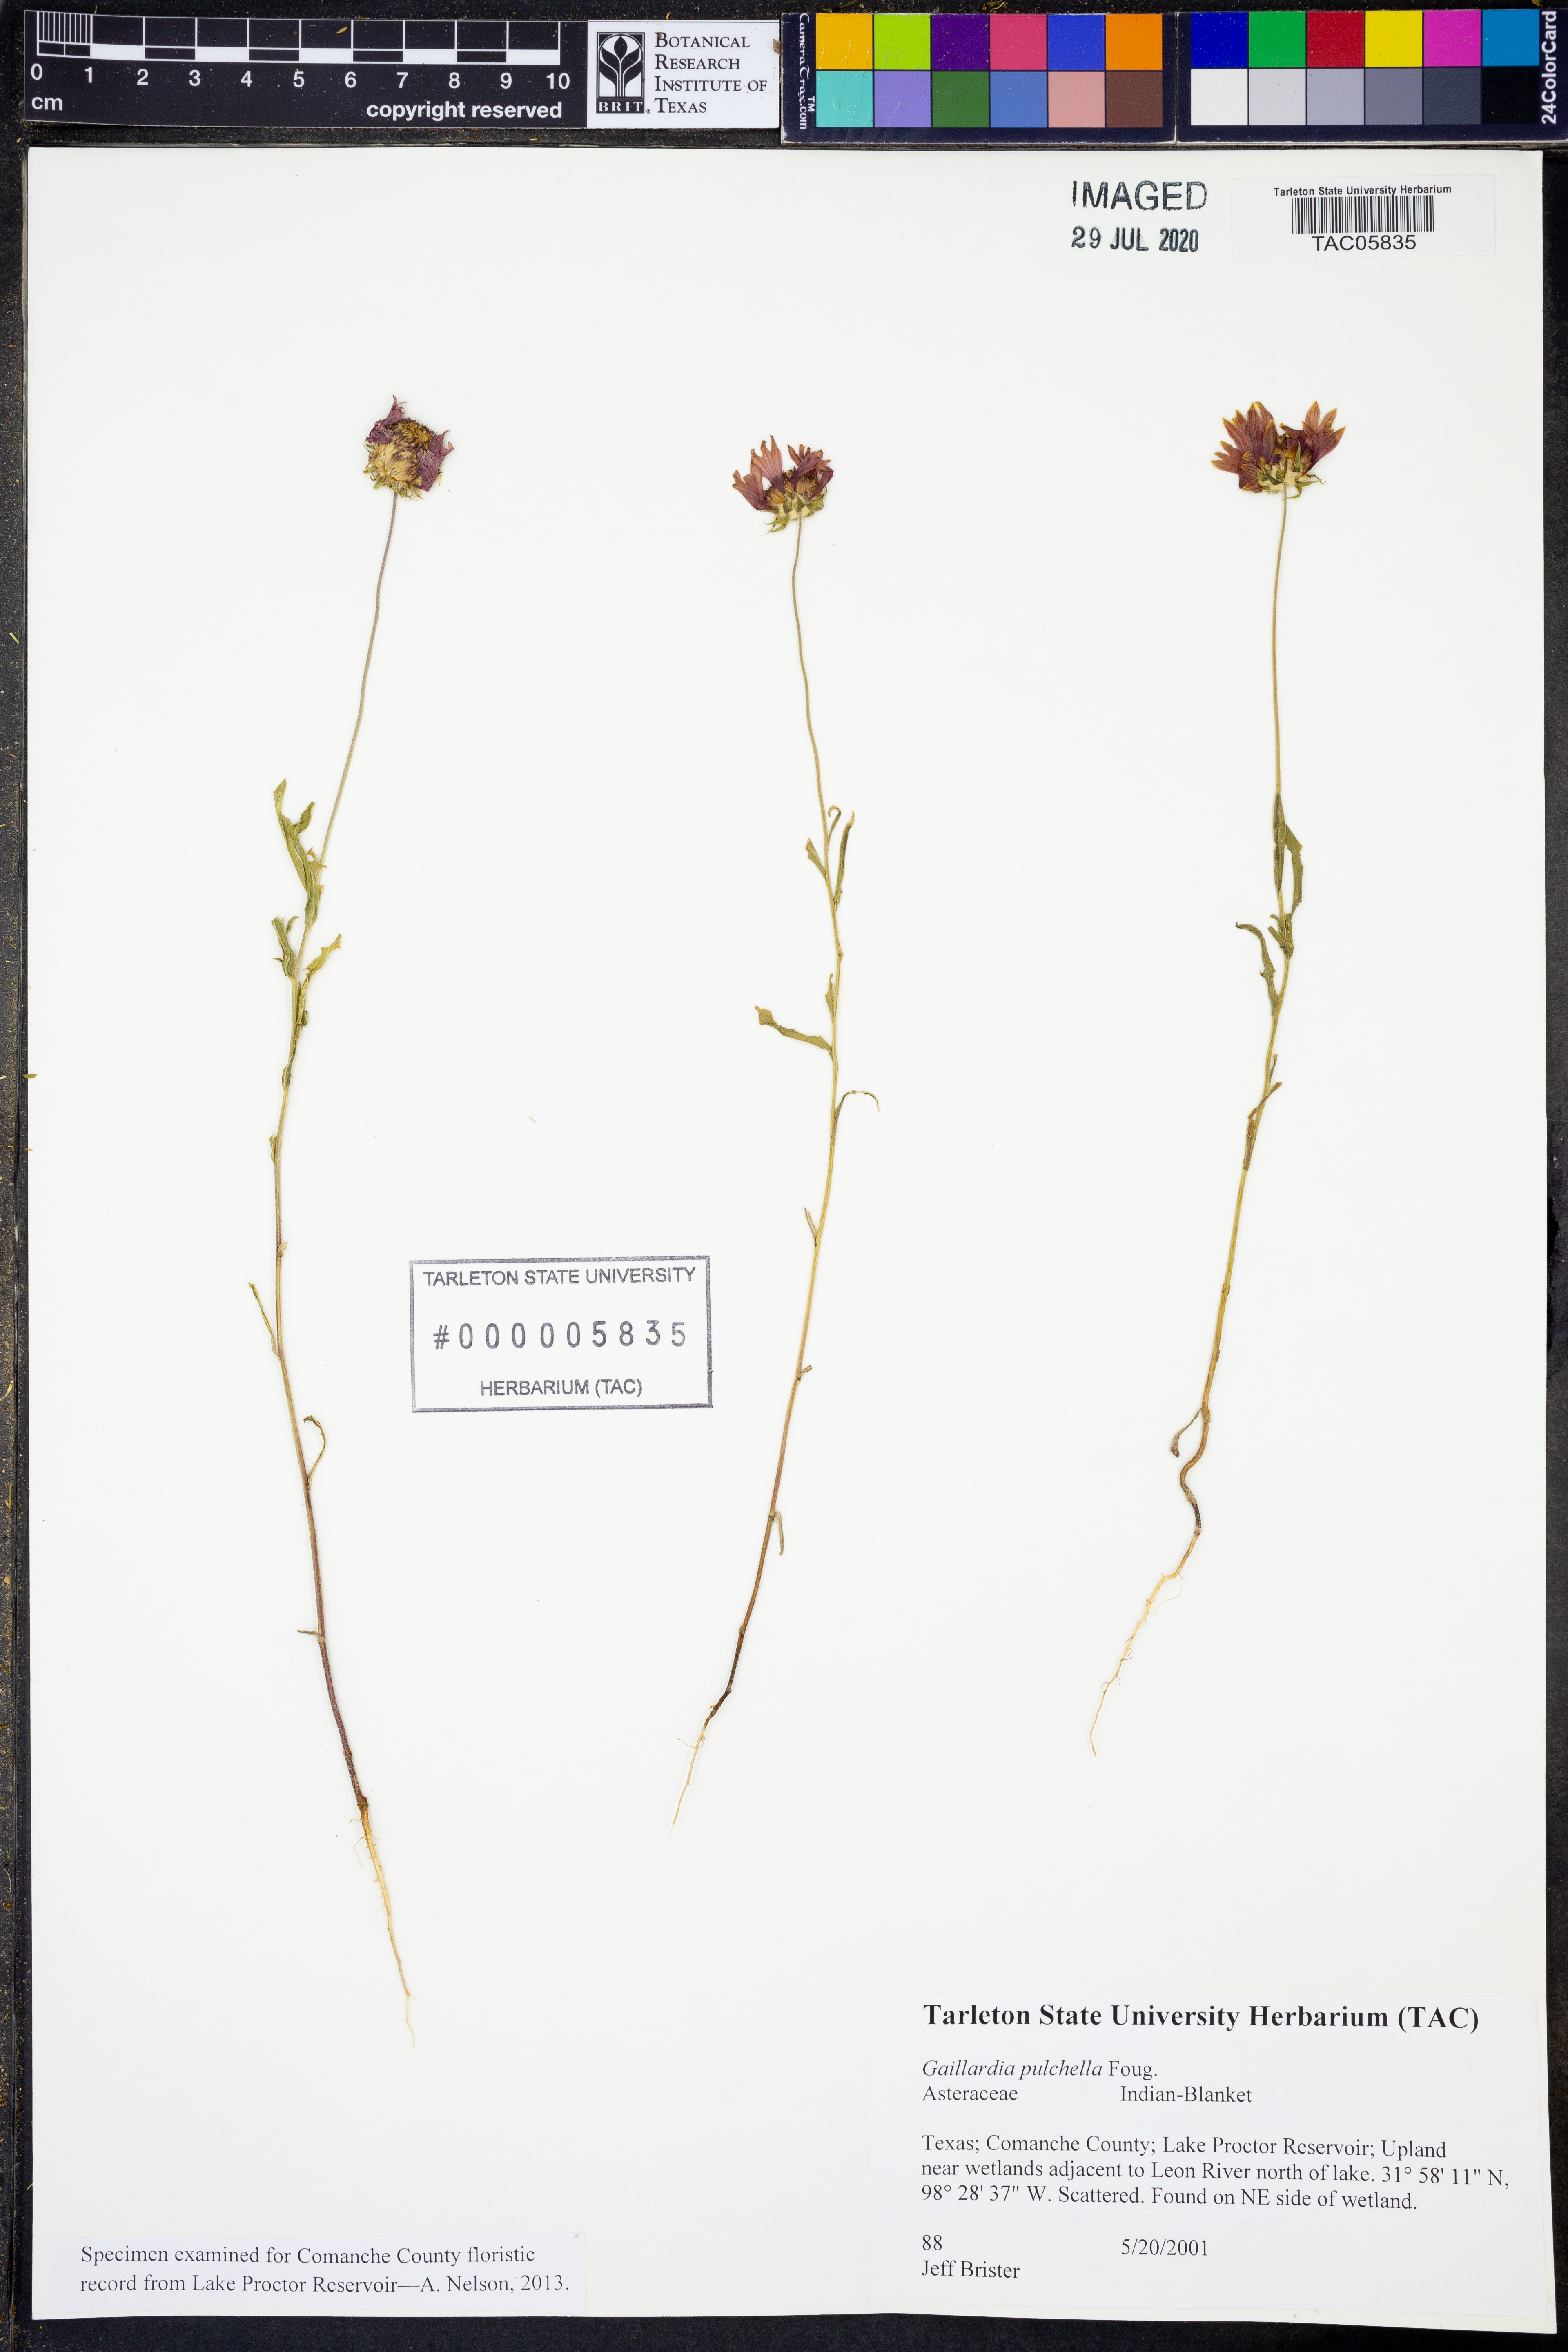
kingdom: Plantae
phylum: Tracheophyta
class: Magnoliopsida
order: Asterales
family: Asteraceae
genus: Gaillardia
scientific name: Gaillardia pulchella
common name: Firewheel
